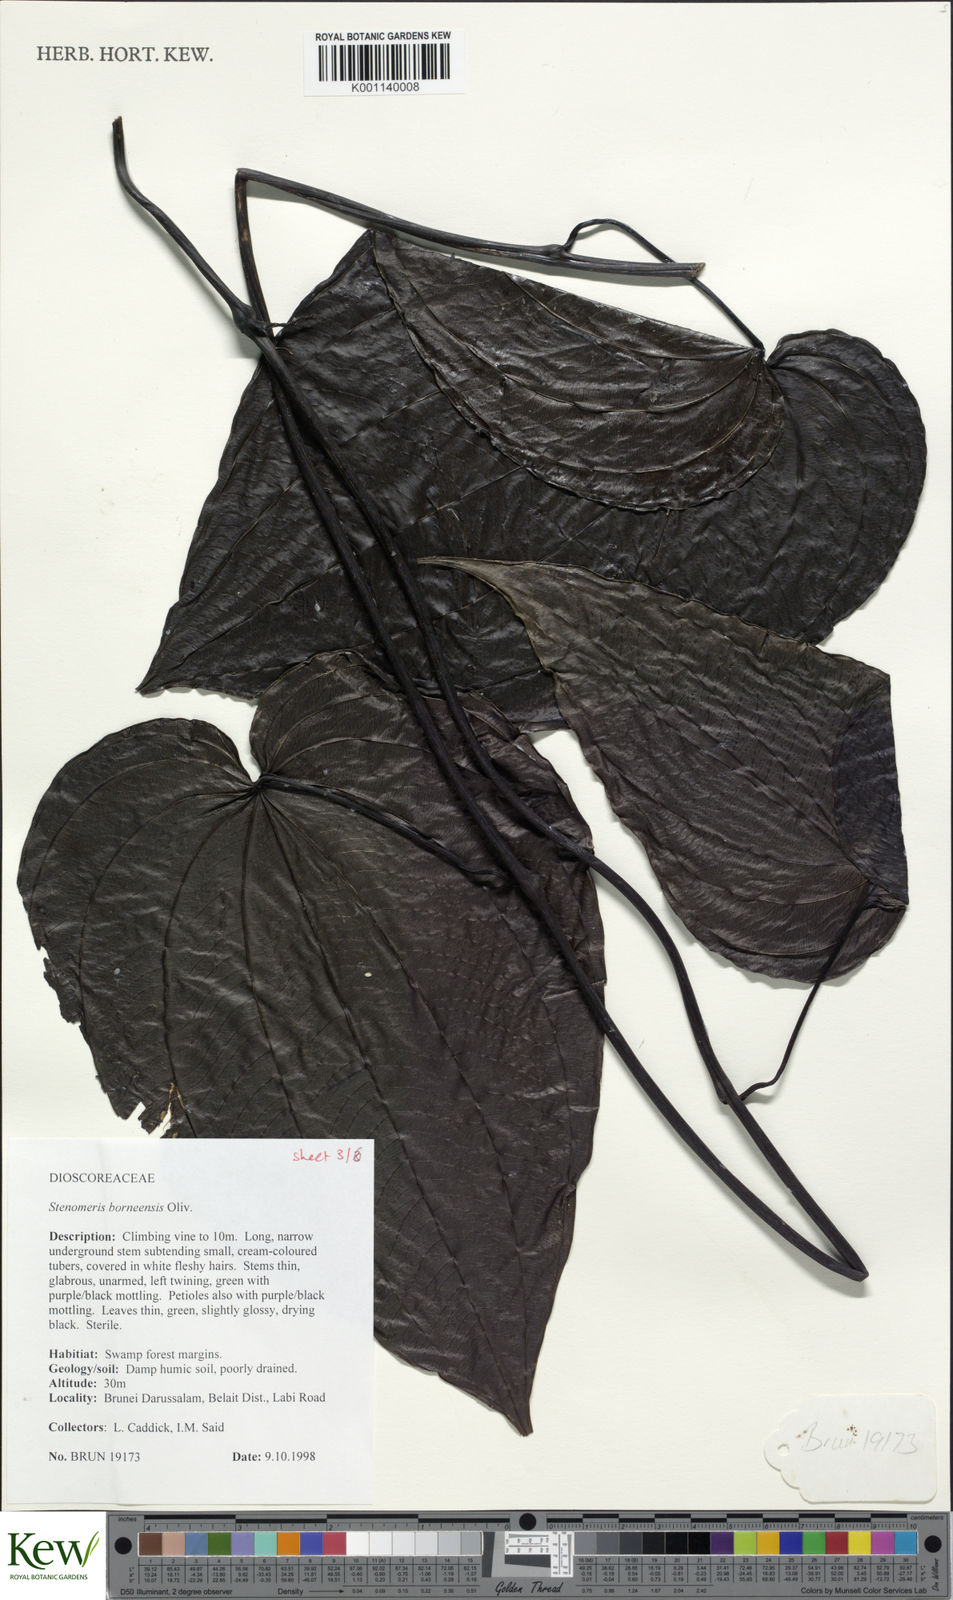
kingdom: Plantae
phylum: Tracheophyta
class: Liliopsida
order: Dioscoreales
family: Dioscoreaceae
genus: Stenomeris
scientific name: Stenomeris borneensis
